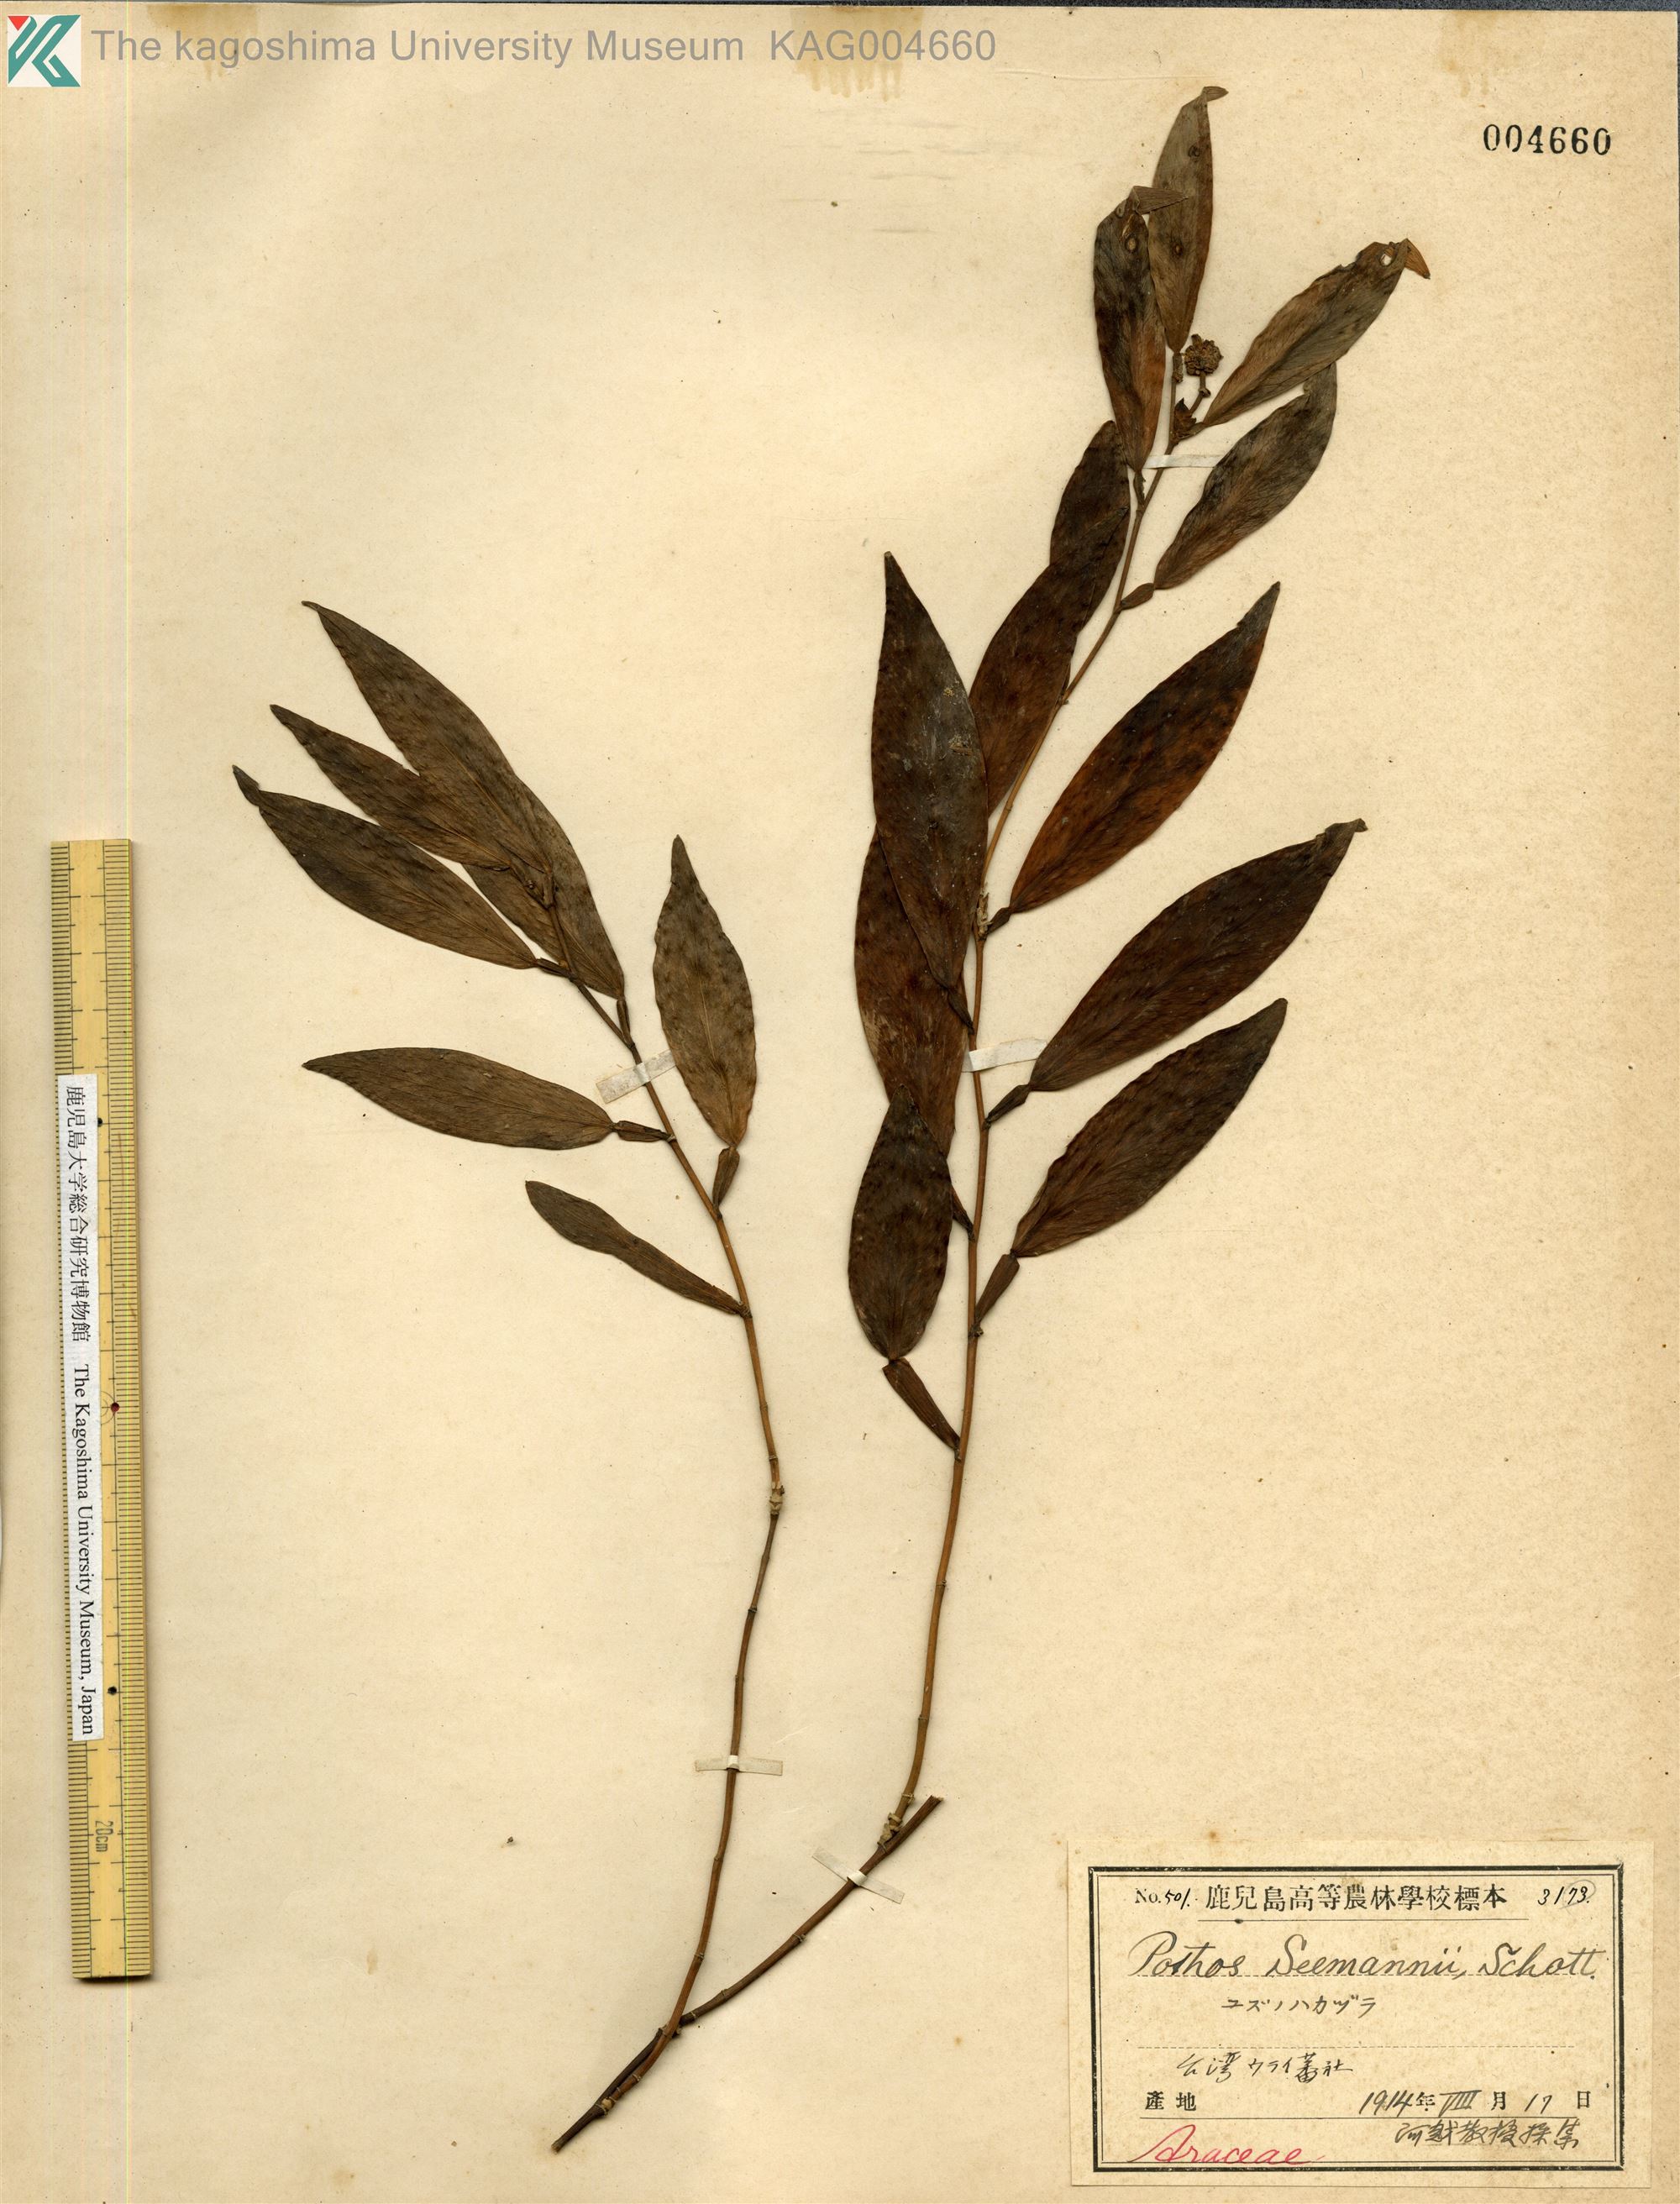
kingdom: Plantae
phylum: Tracheophyta
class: Liliopsida
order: Alismatales
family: Araceae
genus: Pothos
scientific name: Pothos chinensis
